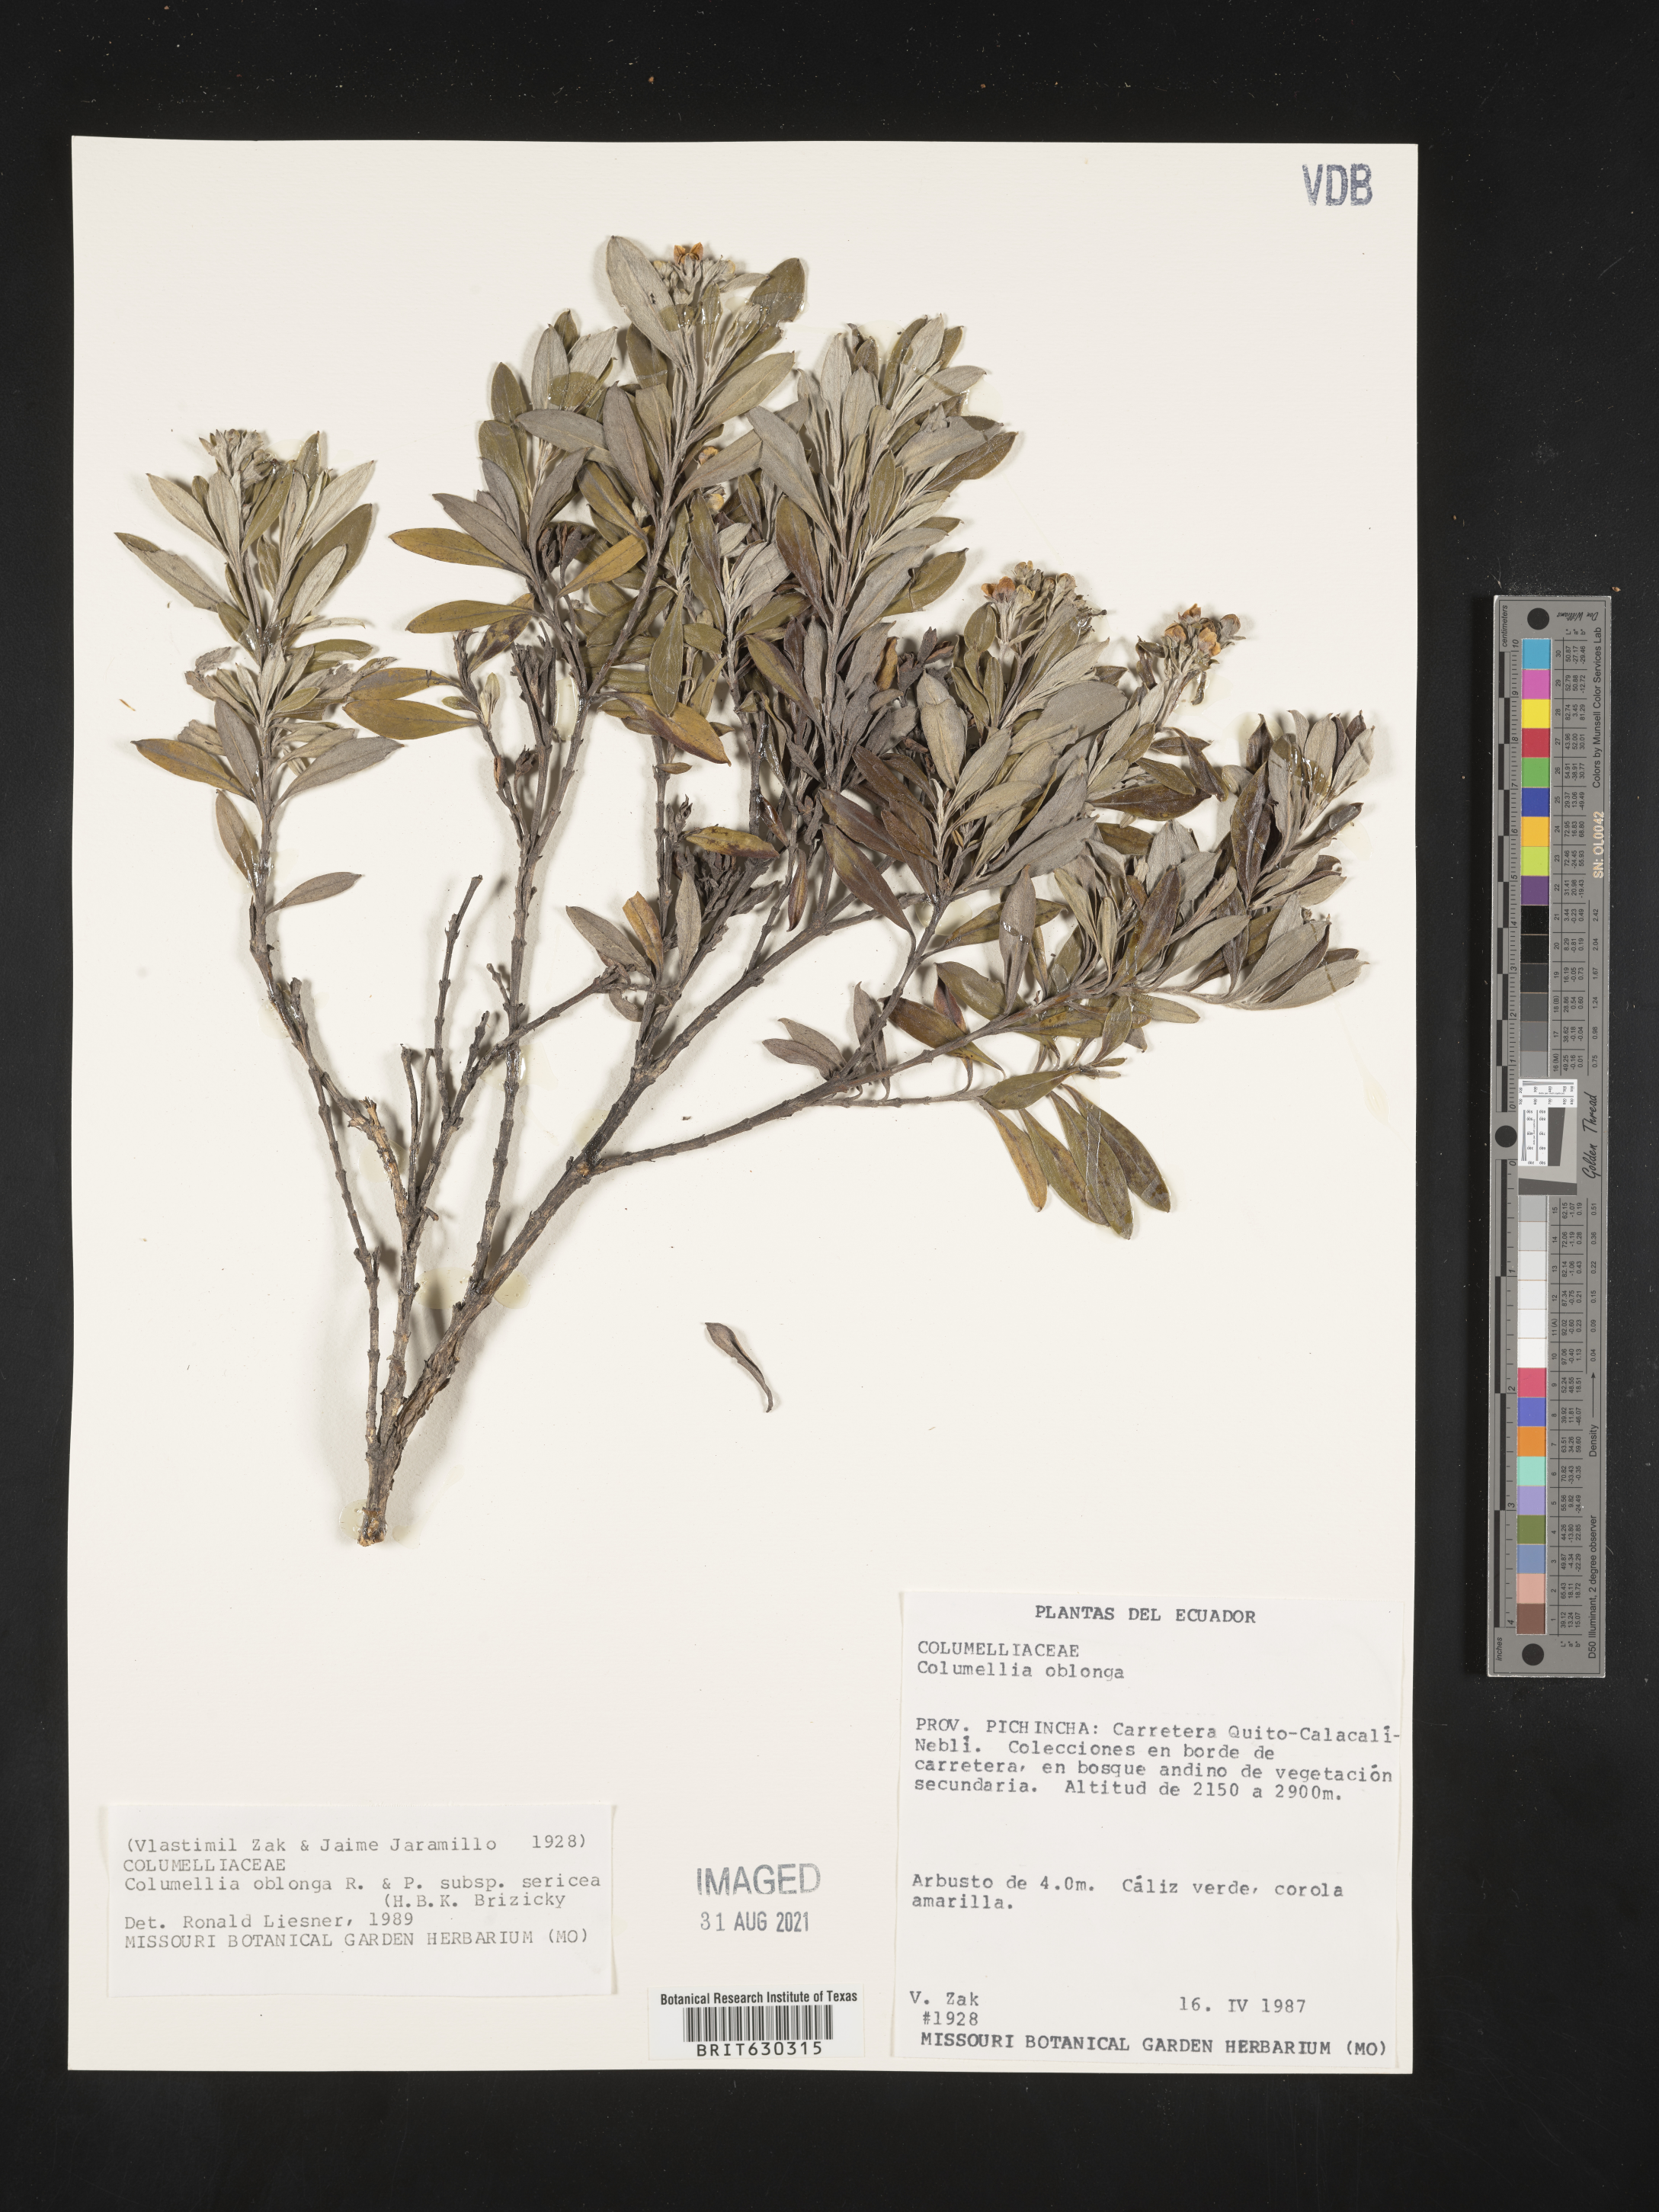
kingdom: Plantae
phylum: Tracheophyta
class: Magnoliopsida
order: Bruniales
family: Columelliaceae
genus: Columellia
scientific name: Columellia oblonga
